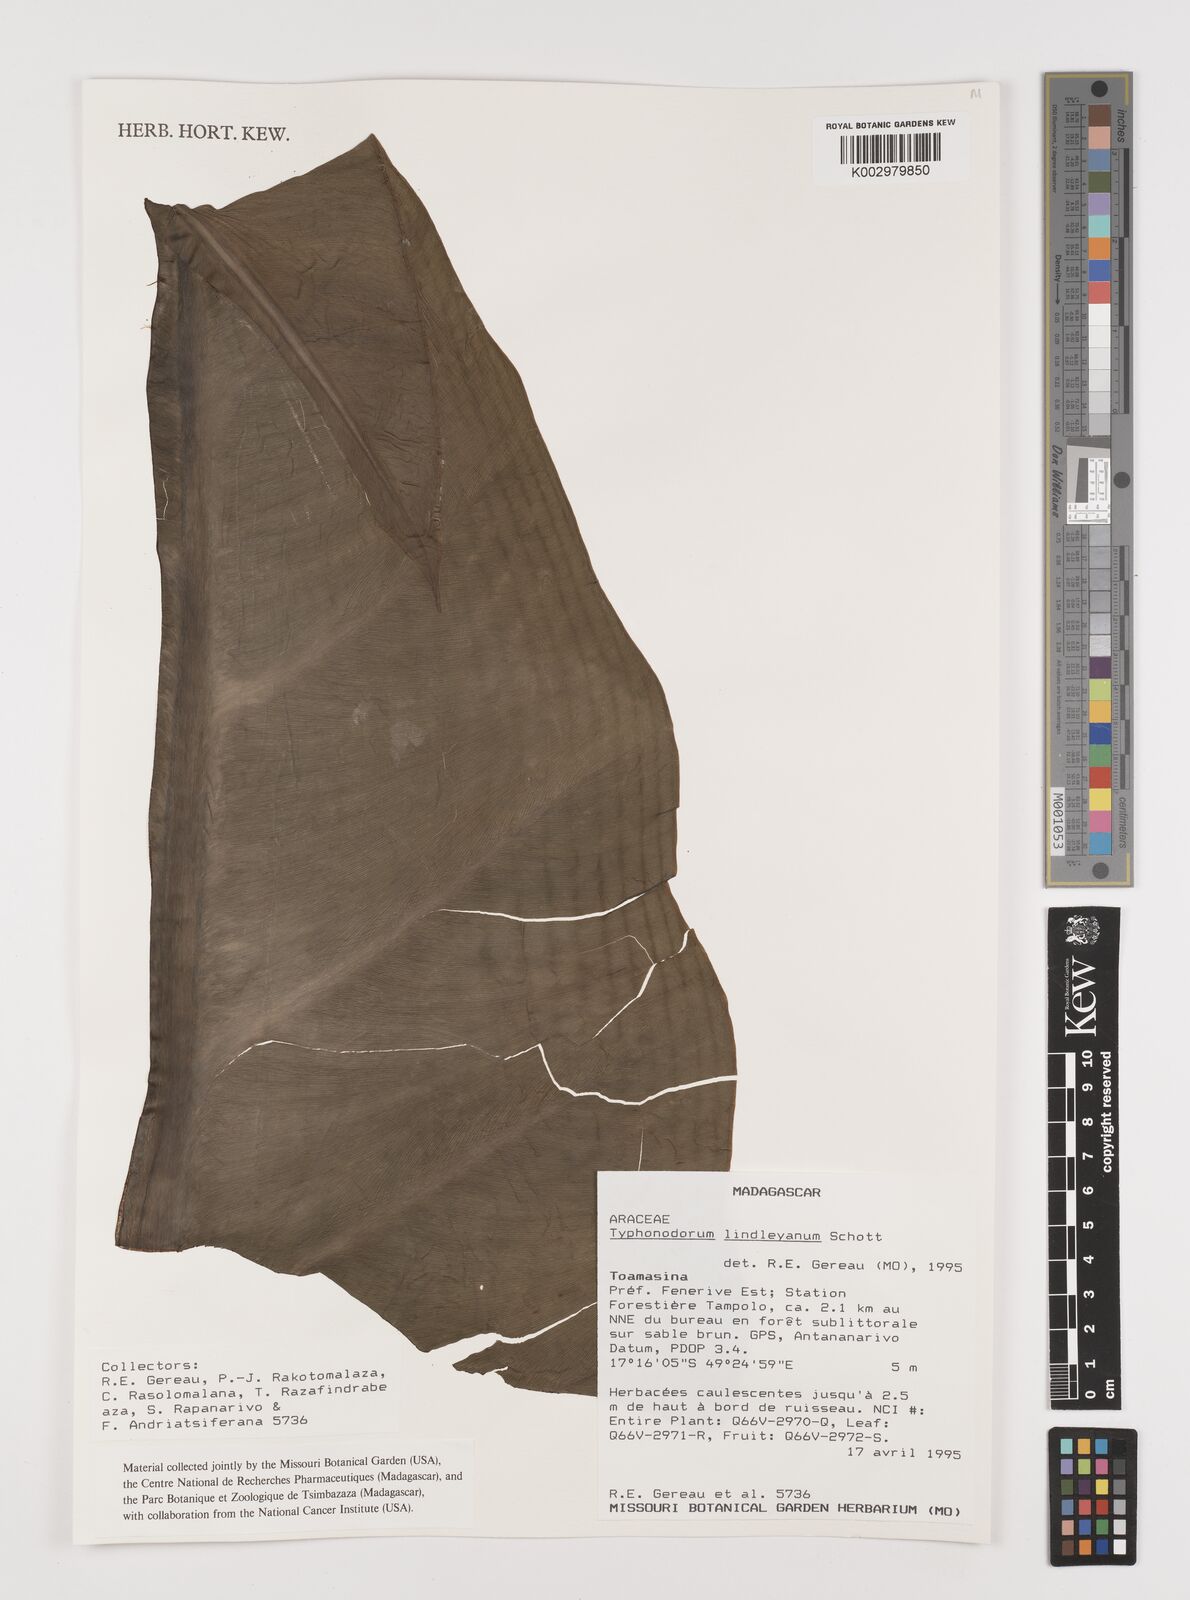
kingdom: Plantae
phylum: Tracheophyta
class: Liliopsida
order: Alismatales
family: Araceae
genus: Typhonodorum
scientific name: Typhonodorum lindleyanum
